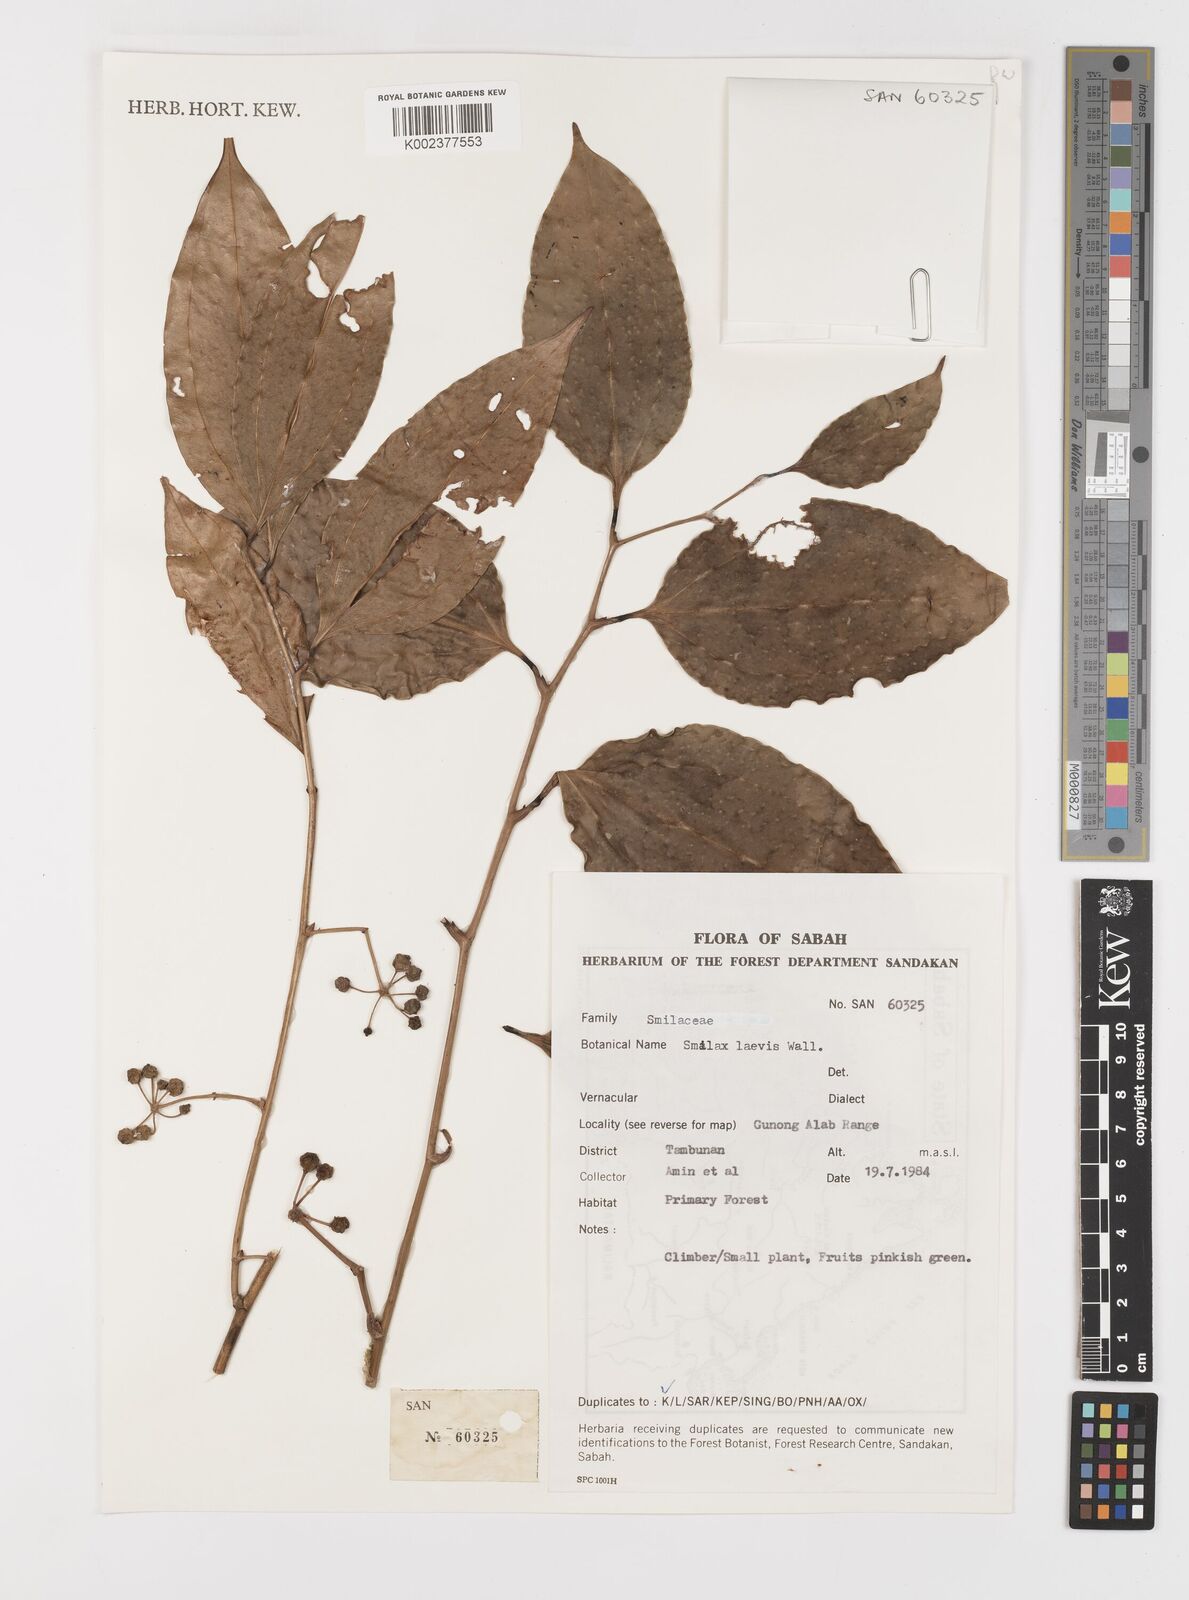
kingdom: Plantae
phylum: Tracheophyta
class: Liliopsida
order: Liliales
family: Smilacaceae
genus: Smilax
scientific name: Smilax laevis
